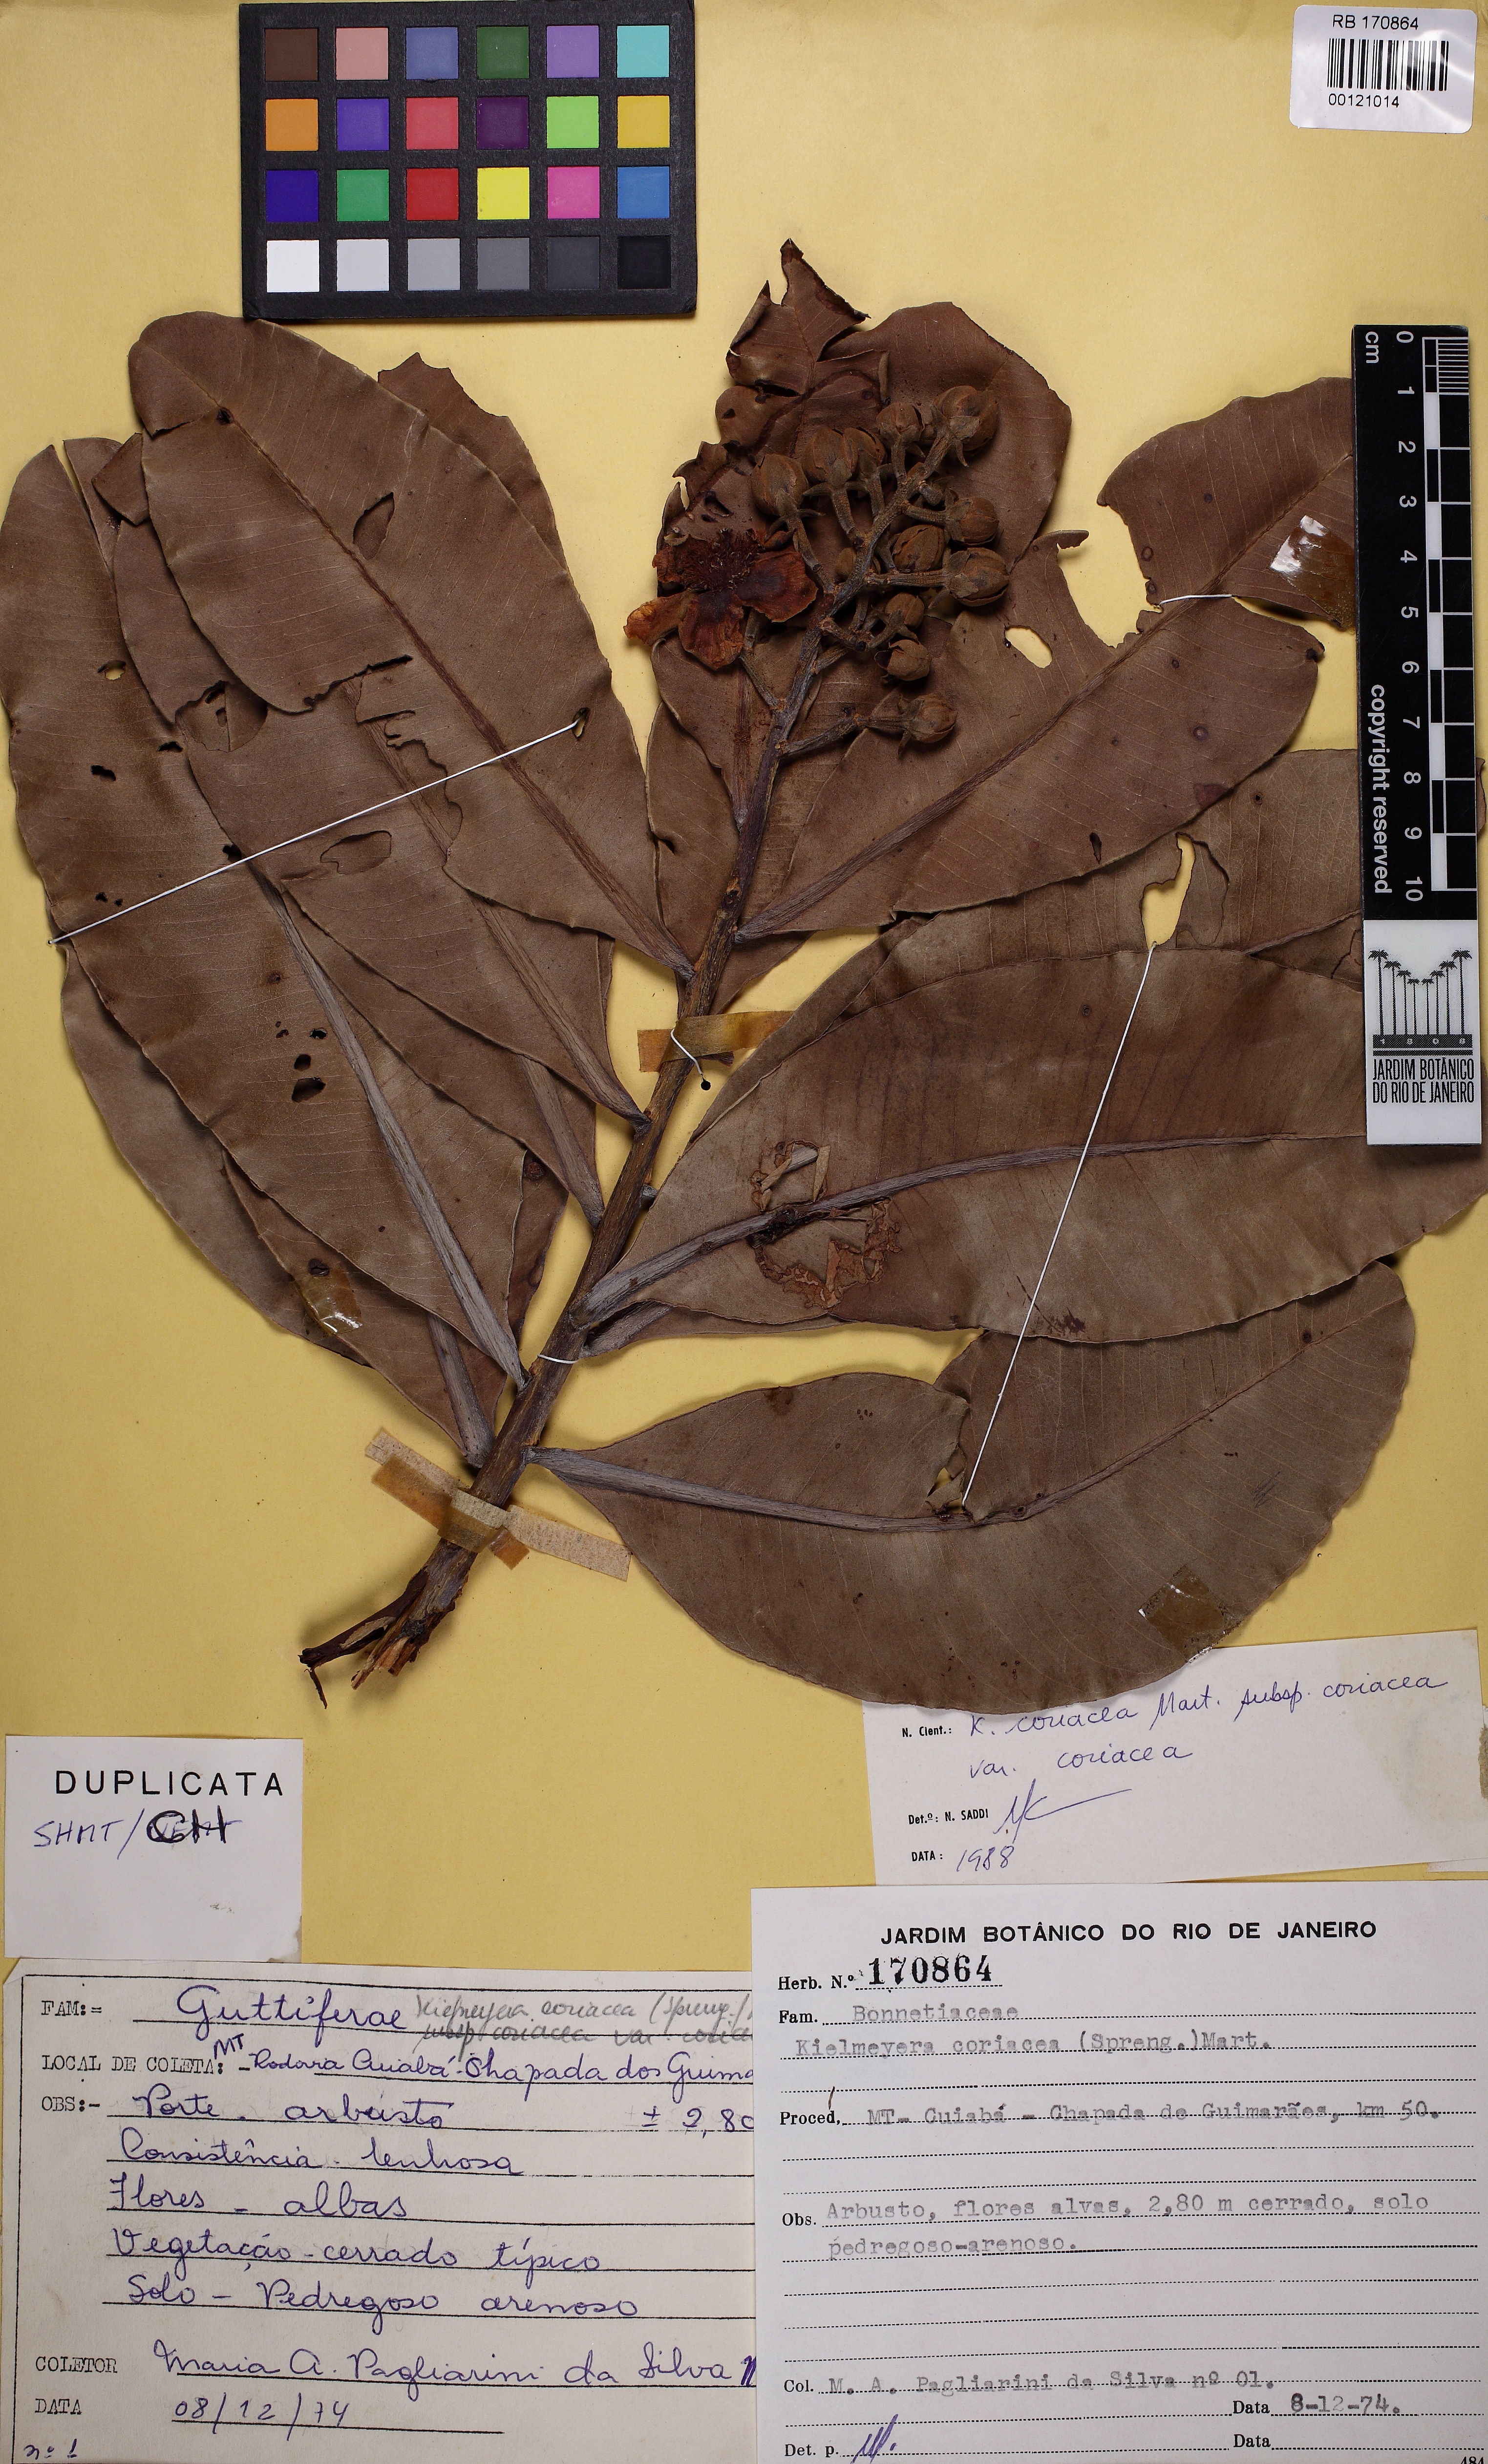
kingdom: Plantae
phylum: Tracheophyta
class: Magnoliopsida
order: Malpighiales
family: Calophyllaceae
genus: Kielmeyera
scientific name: Kielmeyera coriacea
